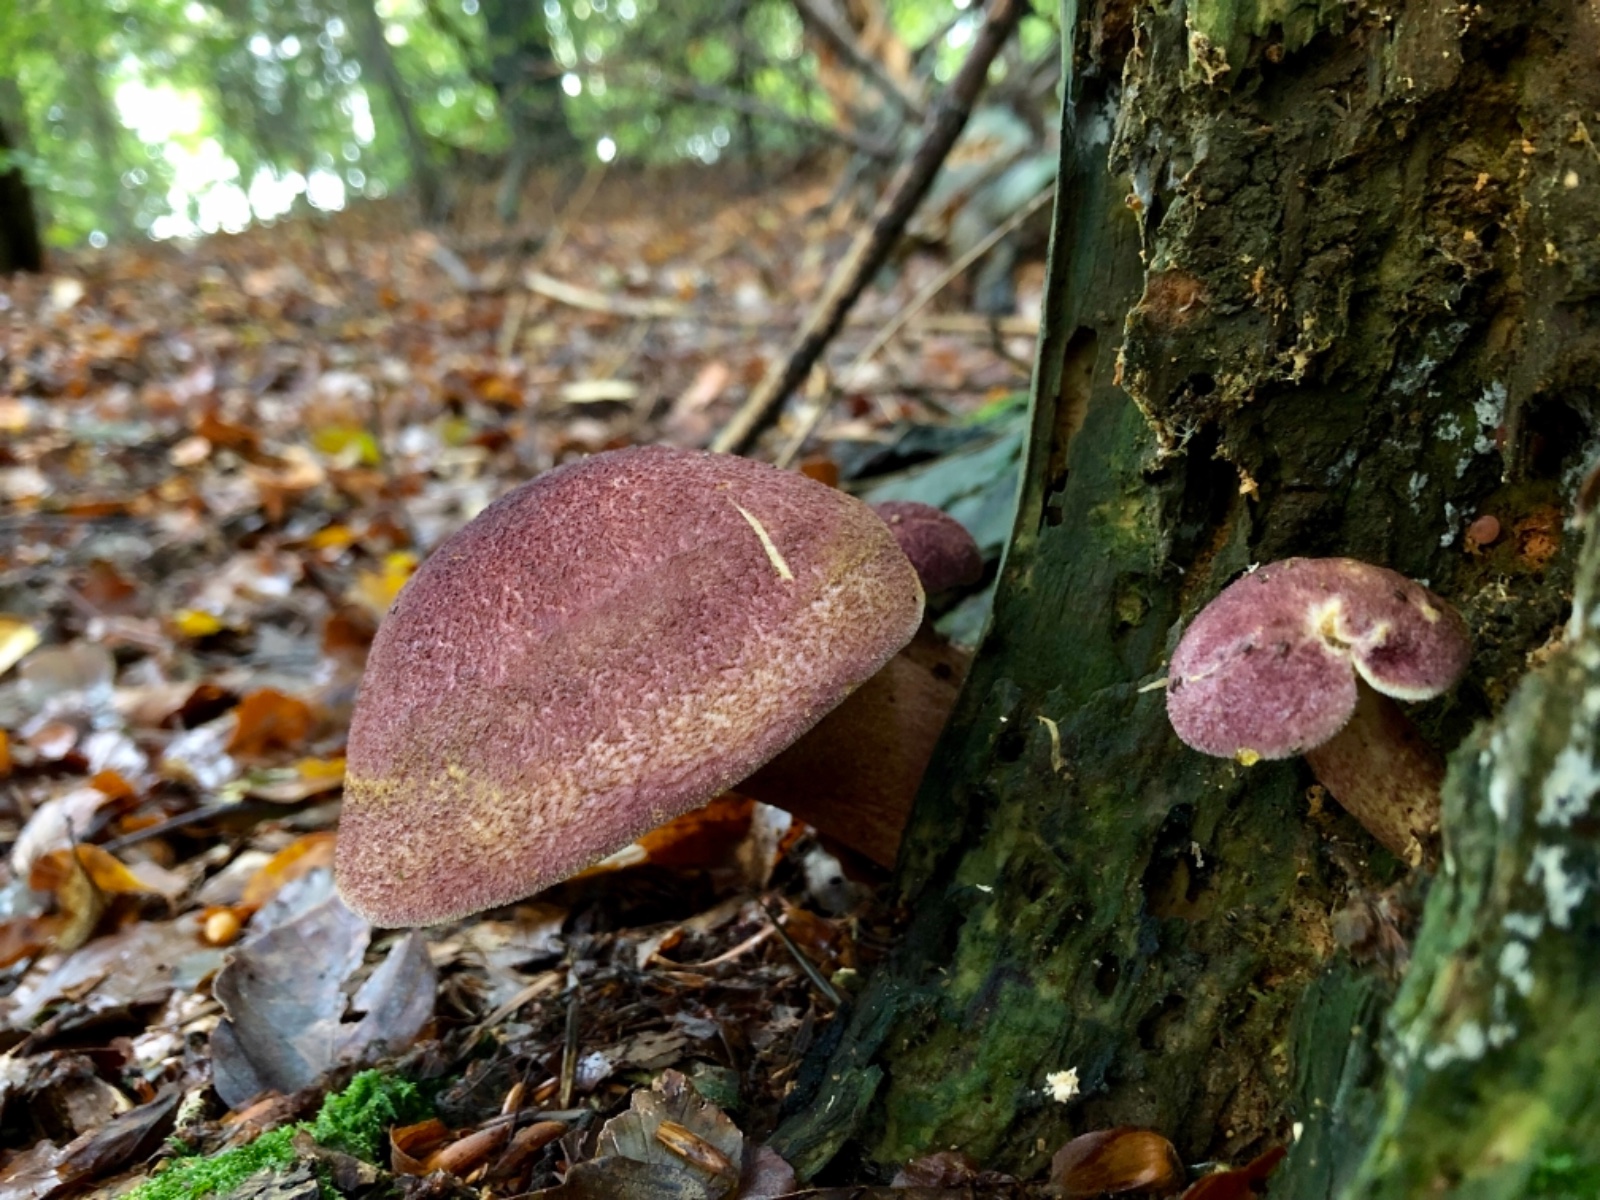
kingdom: Fungi
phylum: Basidiomycota
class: Agaricomycetes
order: Agaricales
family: Tricholomataceae
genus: Tricholomopsis
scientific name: Tricholomopsis rutilans
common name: purpur-væbnerhat
